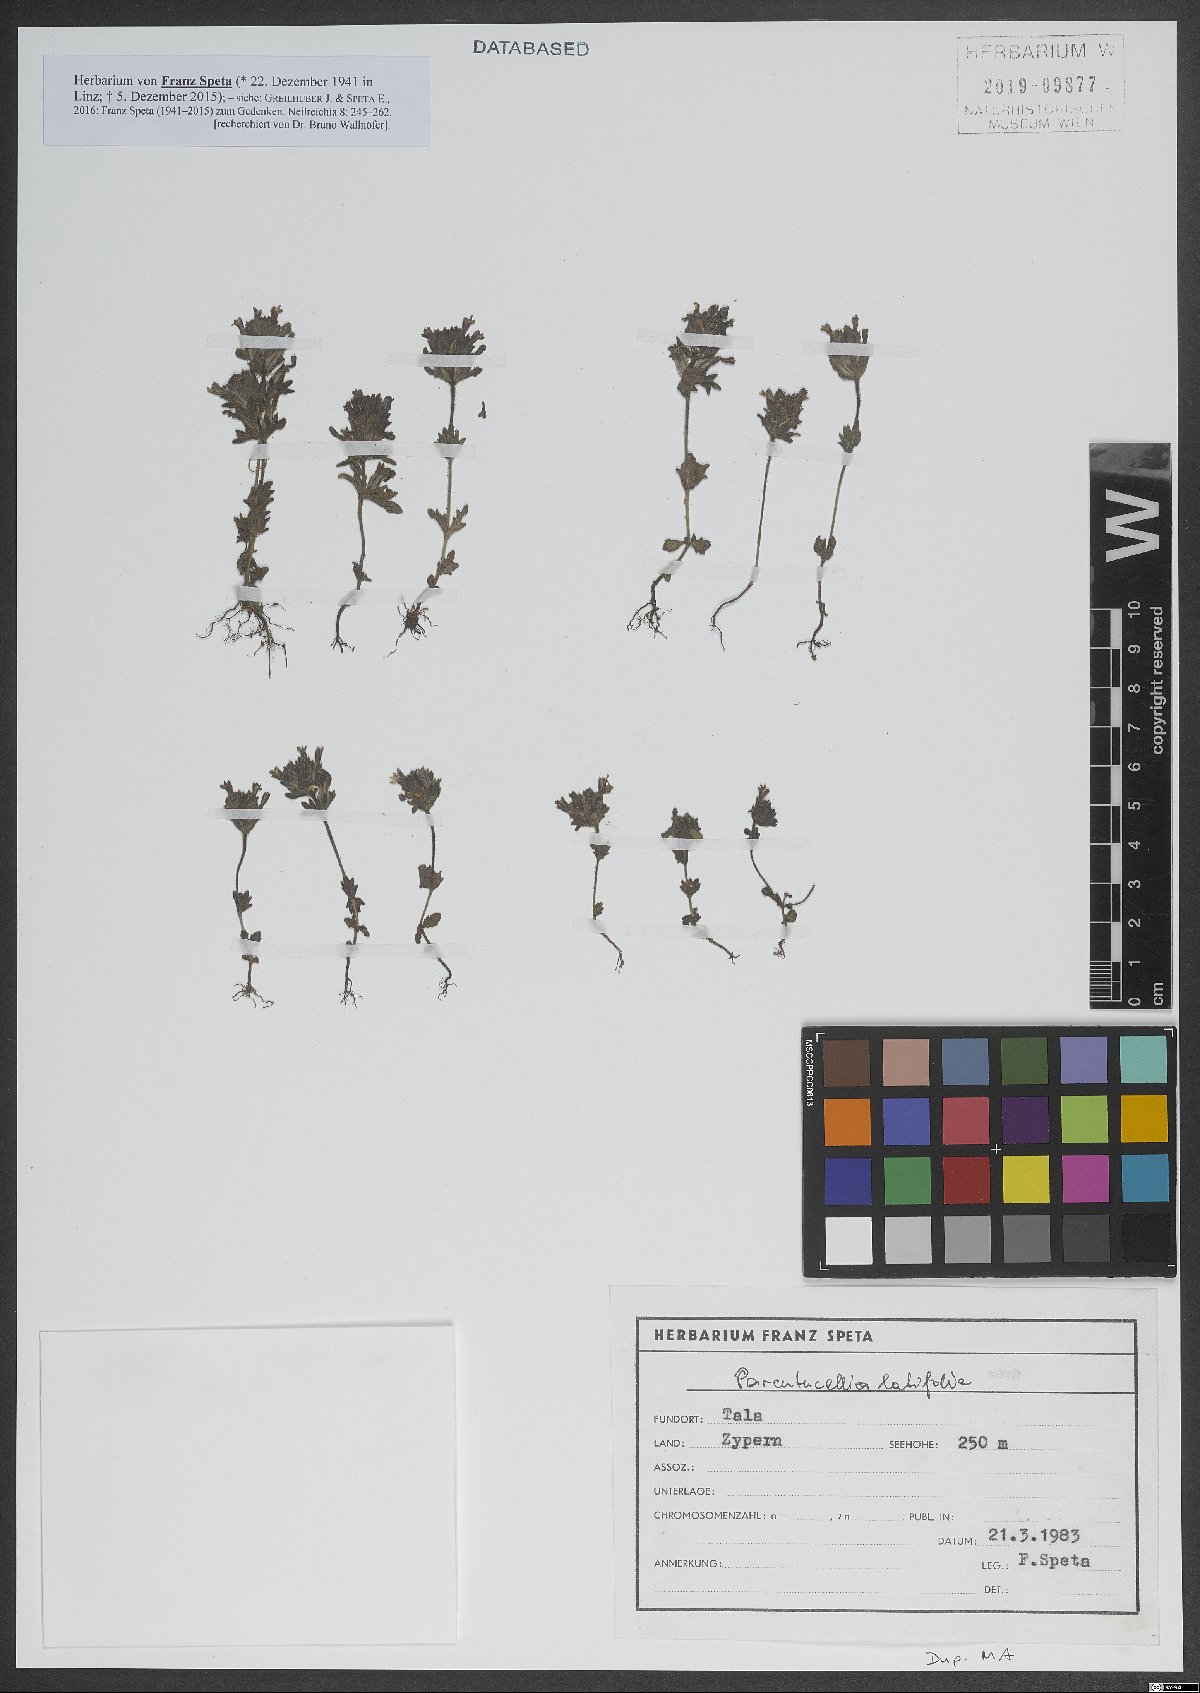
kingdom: Plantae
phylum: Tracheophyta
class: Magnoliopsida
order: Lamiales
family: Orobanchaceae
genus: Parentucellia
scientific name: Parentucellia latifolia
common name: Broadleaf glandweed
